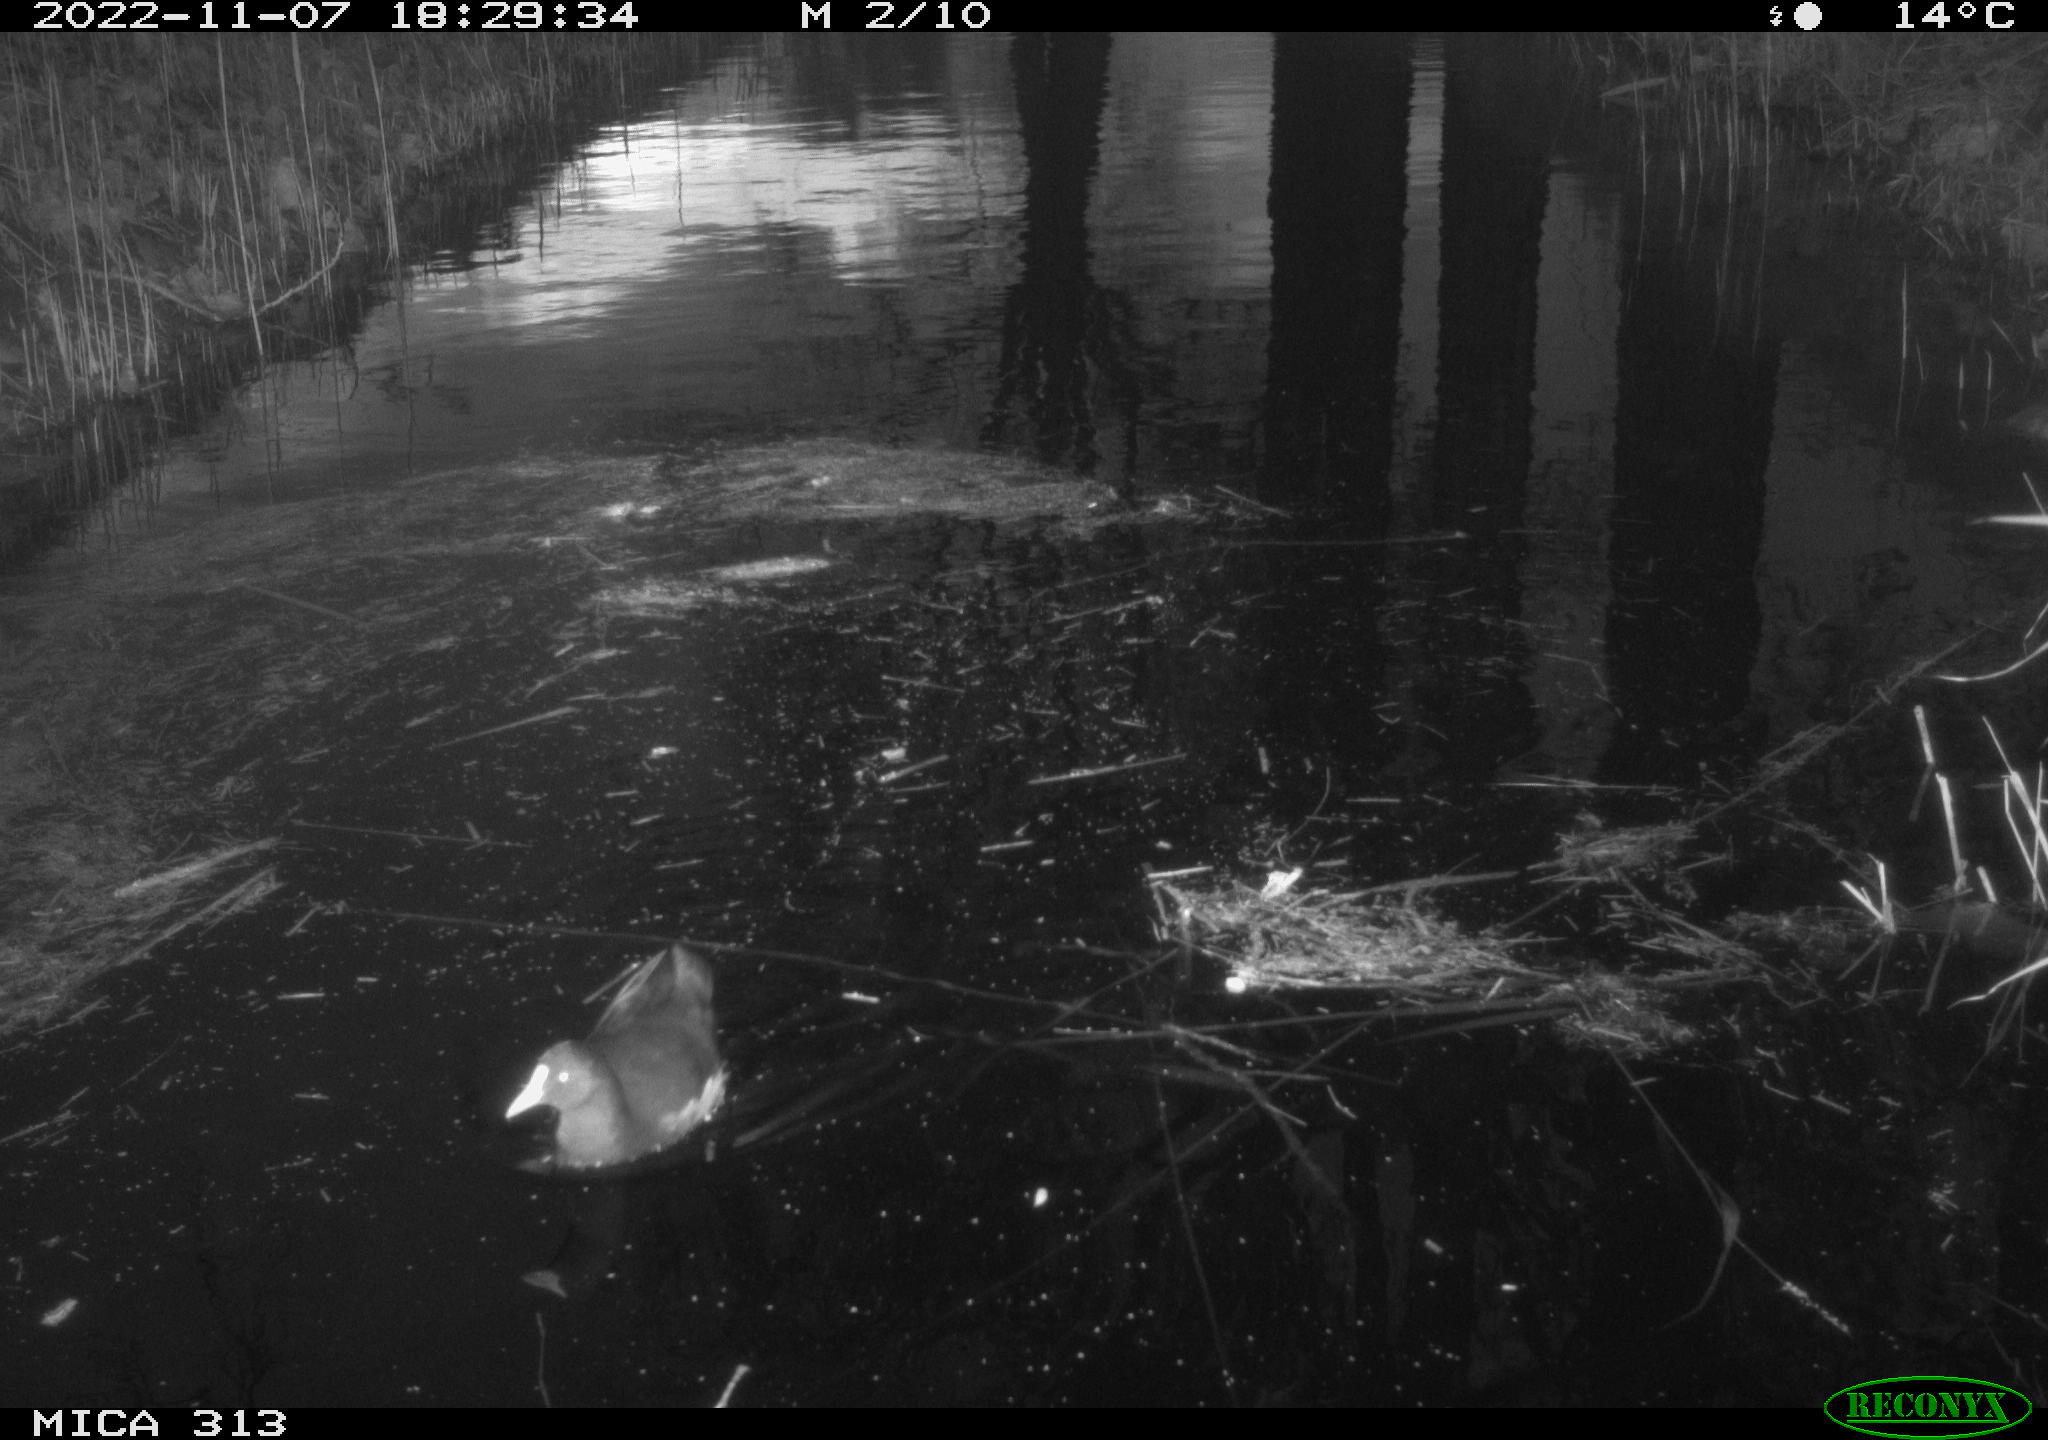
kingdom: Animalia
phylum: Chordata
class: Aves
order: Gruiformes
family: Rallidae
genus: Gallinula
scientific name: Gallinula chloropus
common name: Common moorhen
